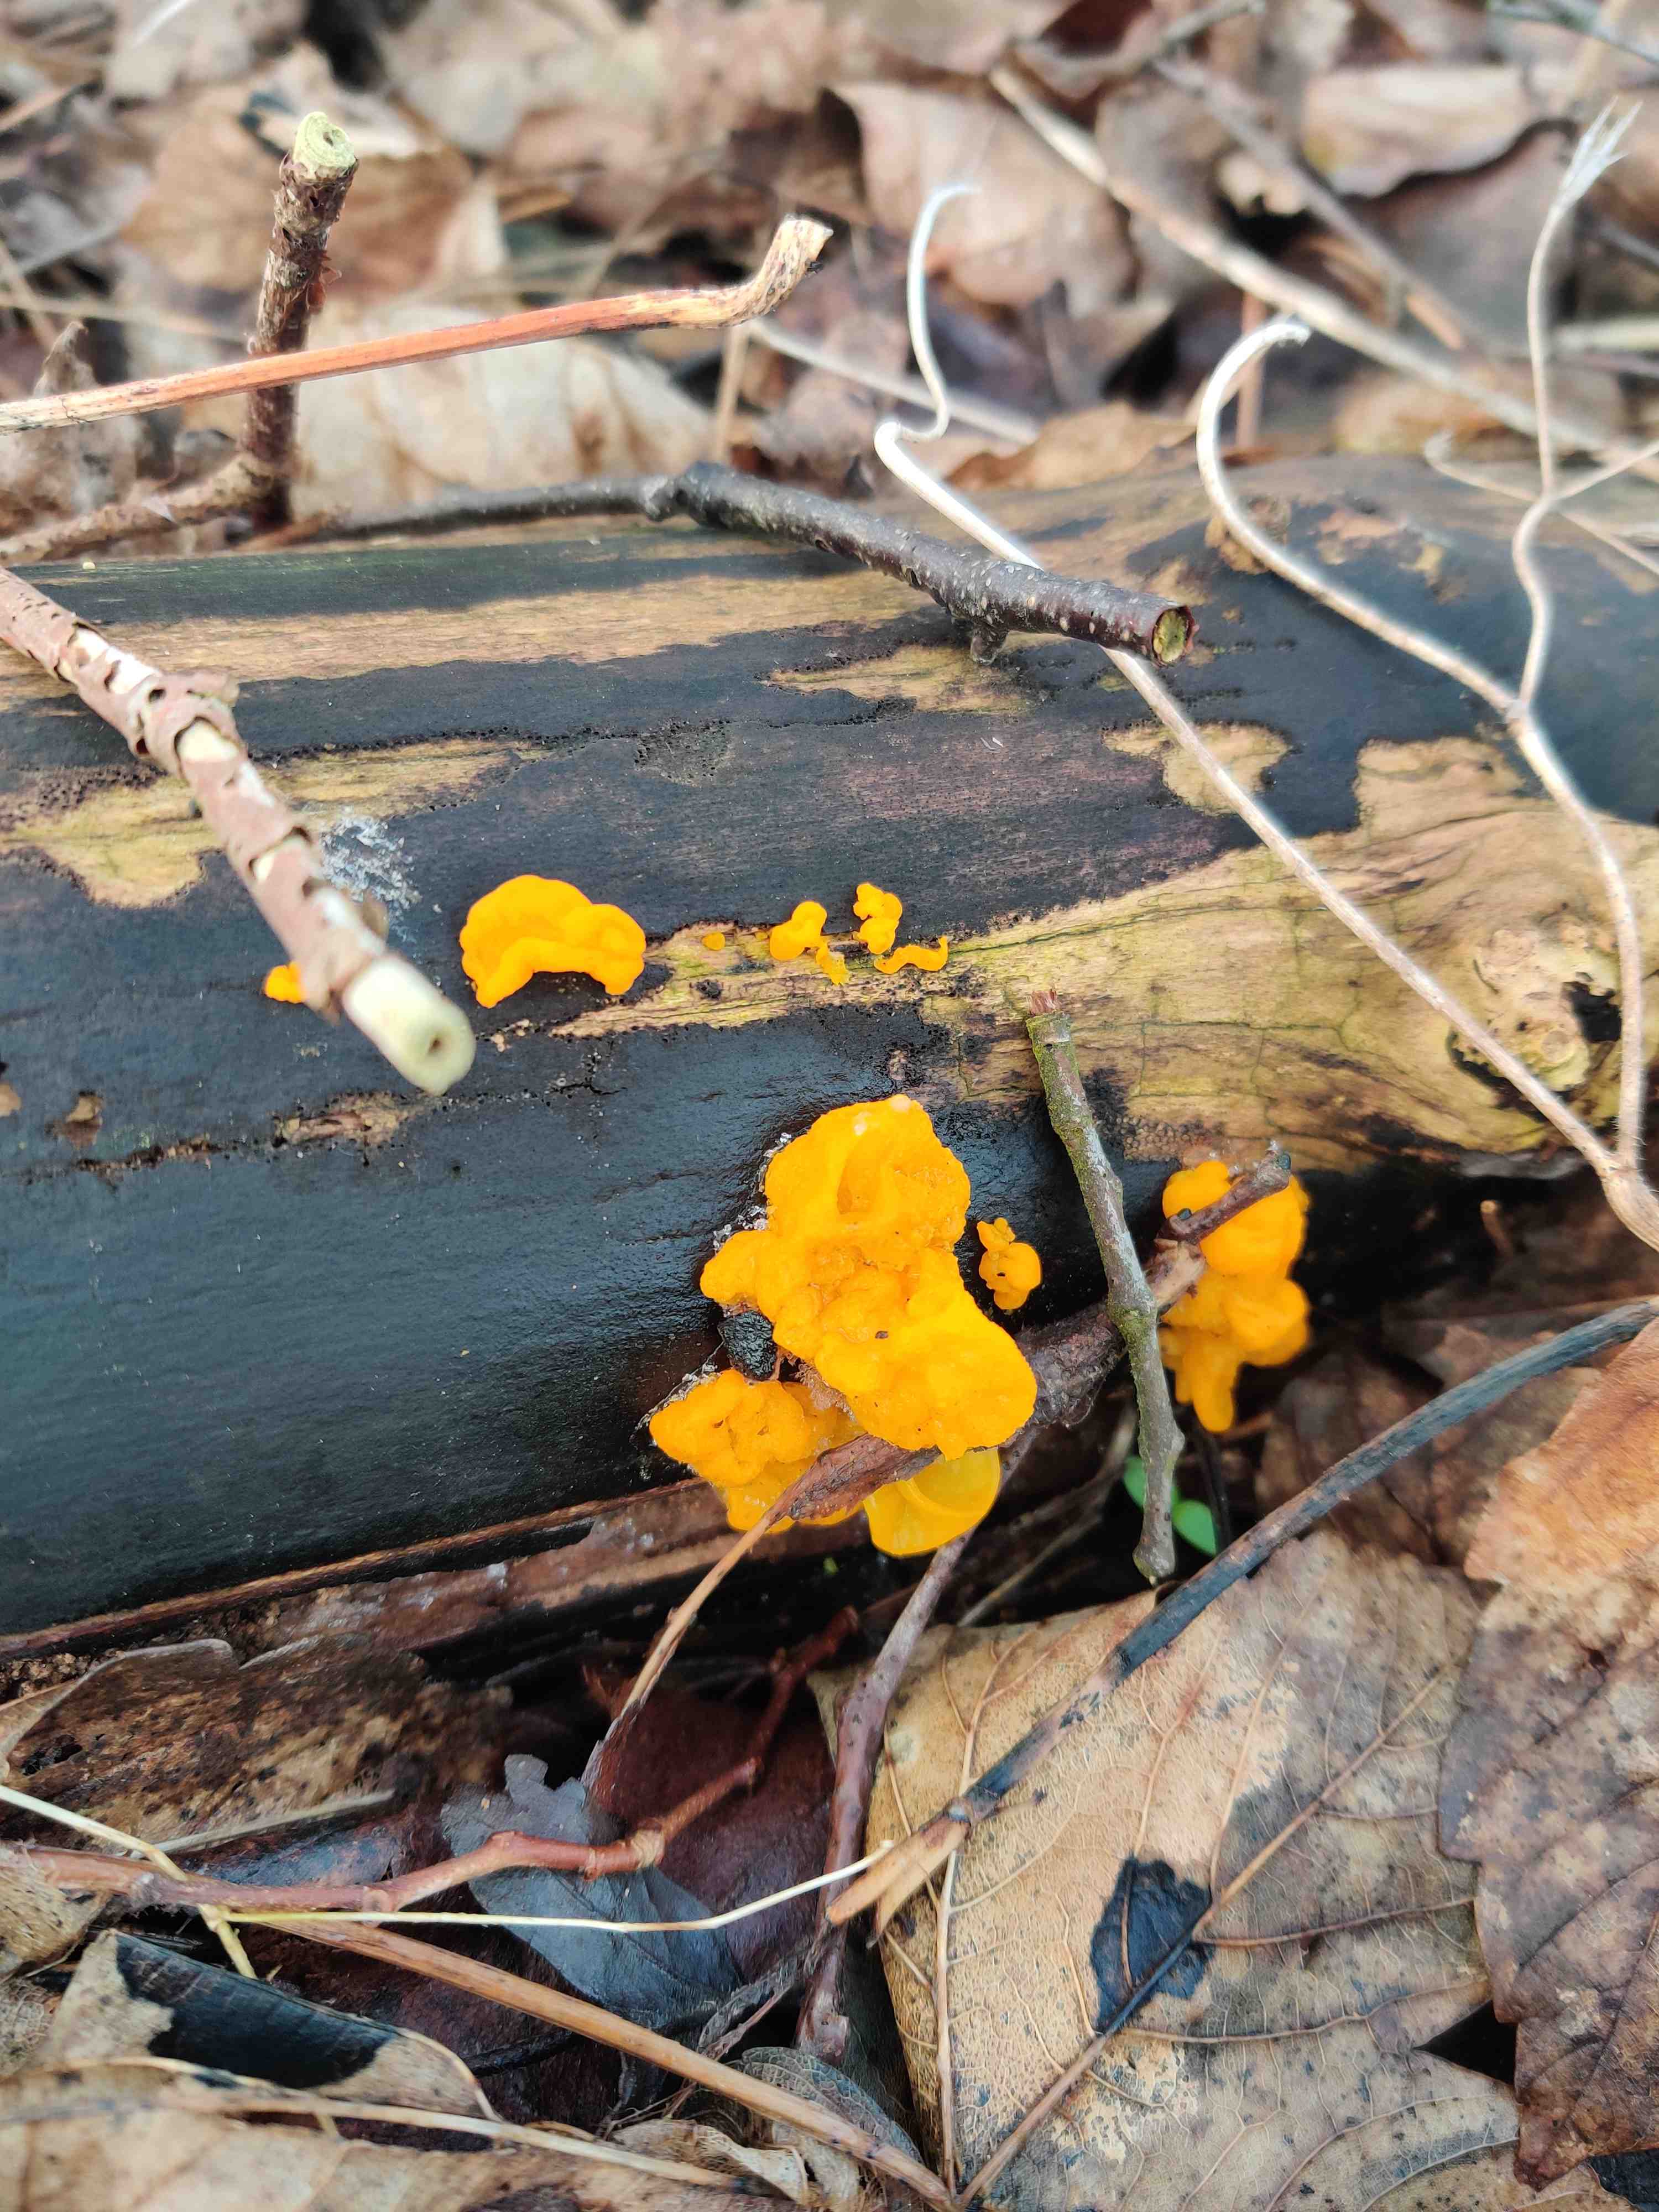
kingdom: Fungi
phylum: Basidiomycota
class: Tremellomycetes
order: Tremellales
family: Tremellaceae
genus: Tremella
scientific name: Tremella mesenterica
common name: gul bævresvamp
